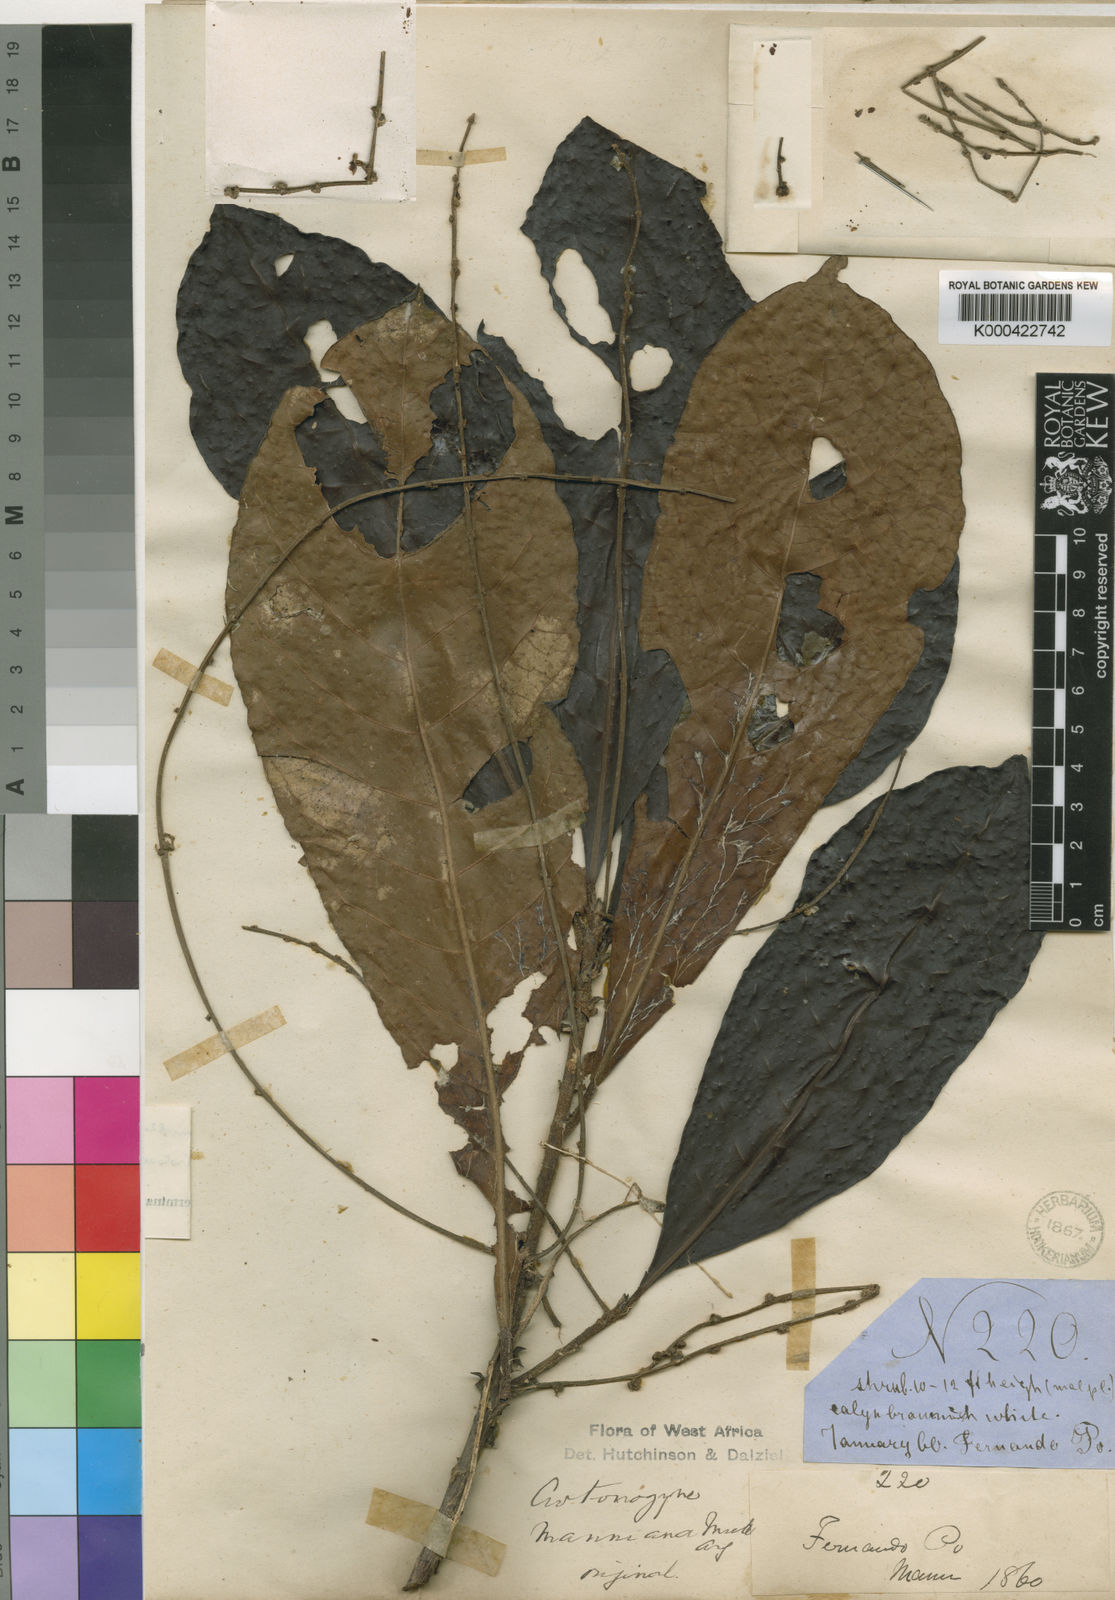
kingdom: Plantae
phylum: Tracheophyta
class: Magnoliopsida
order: Malpighiales
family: Euphorbiaceae
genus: Crotonogyne
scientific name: Crotonogyne
